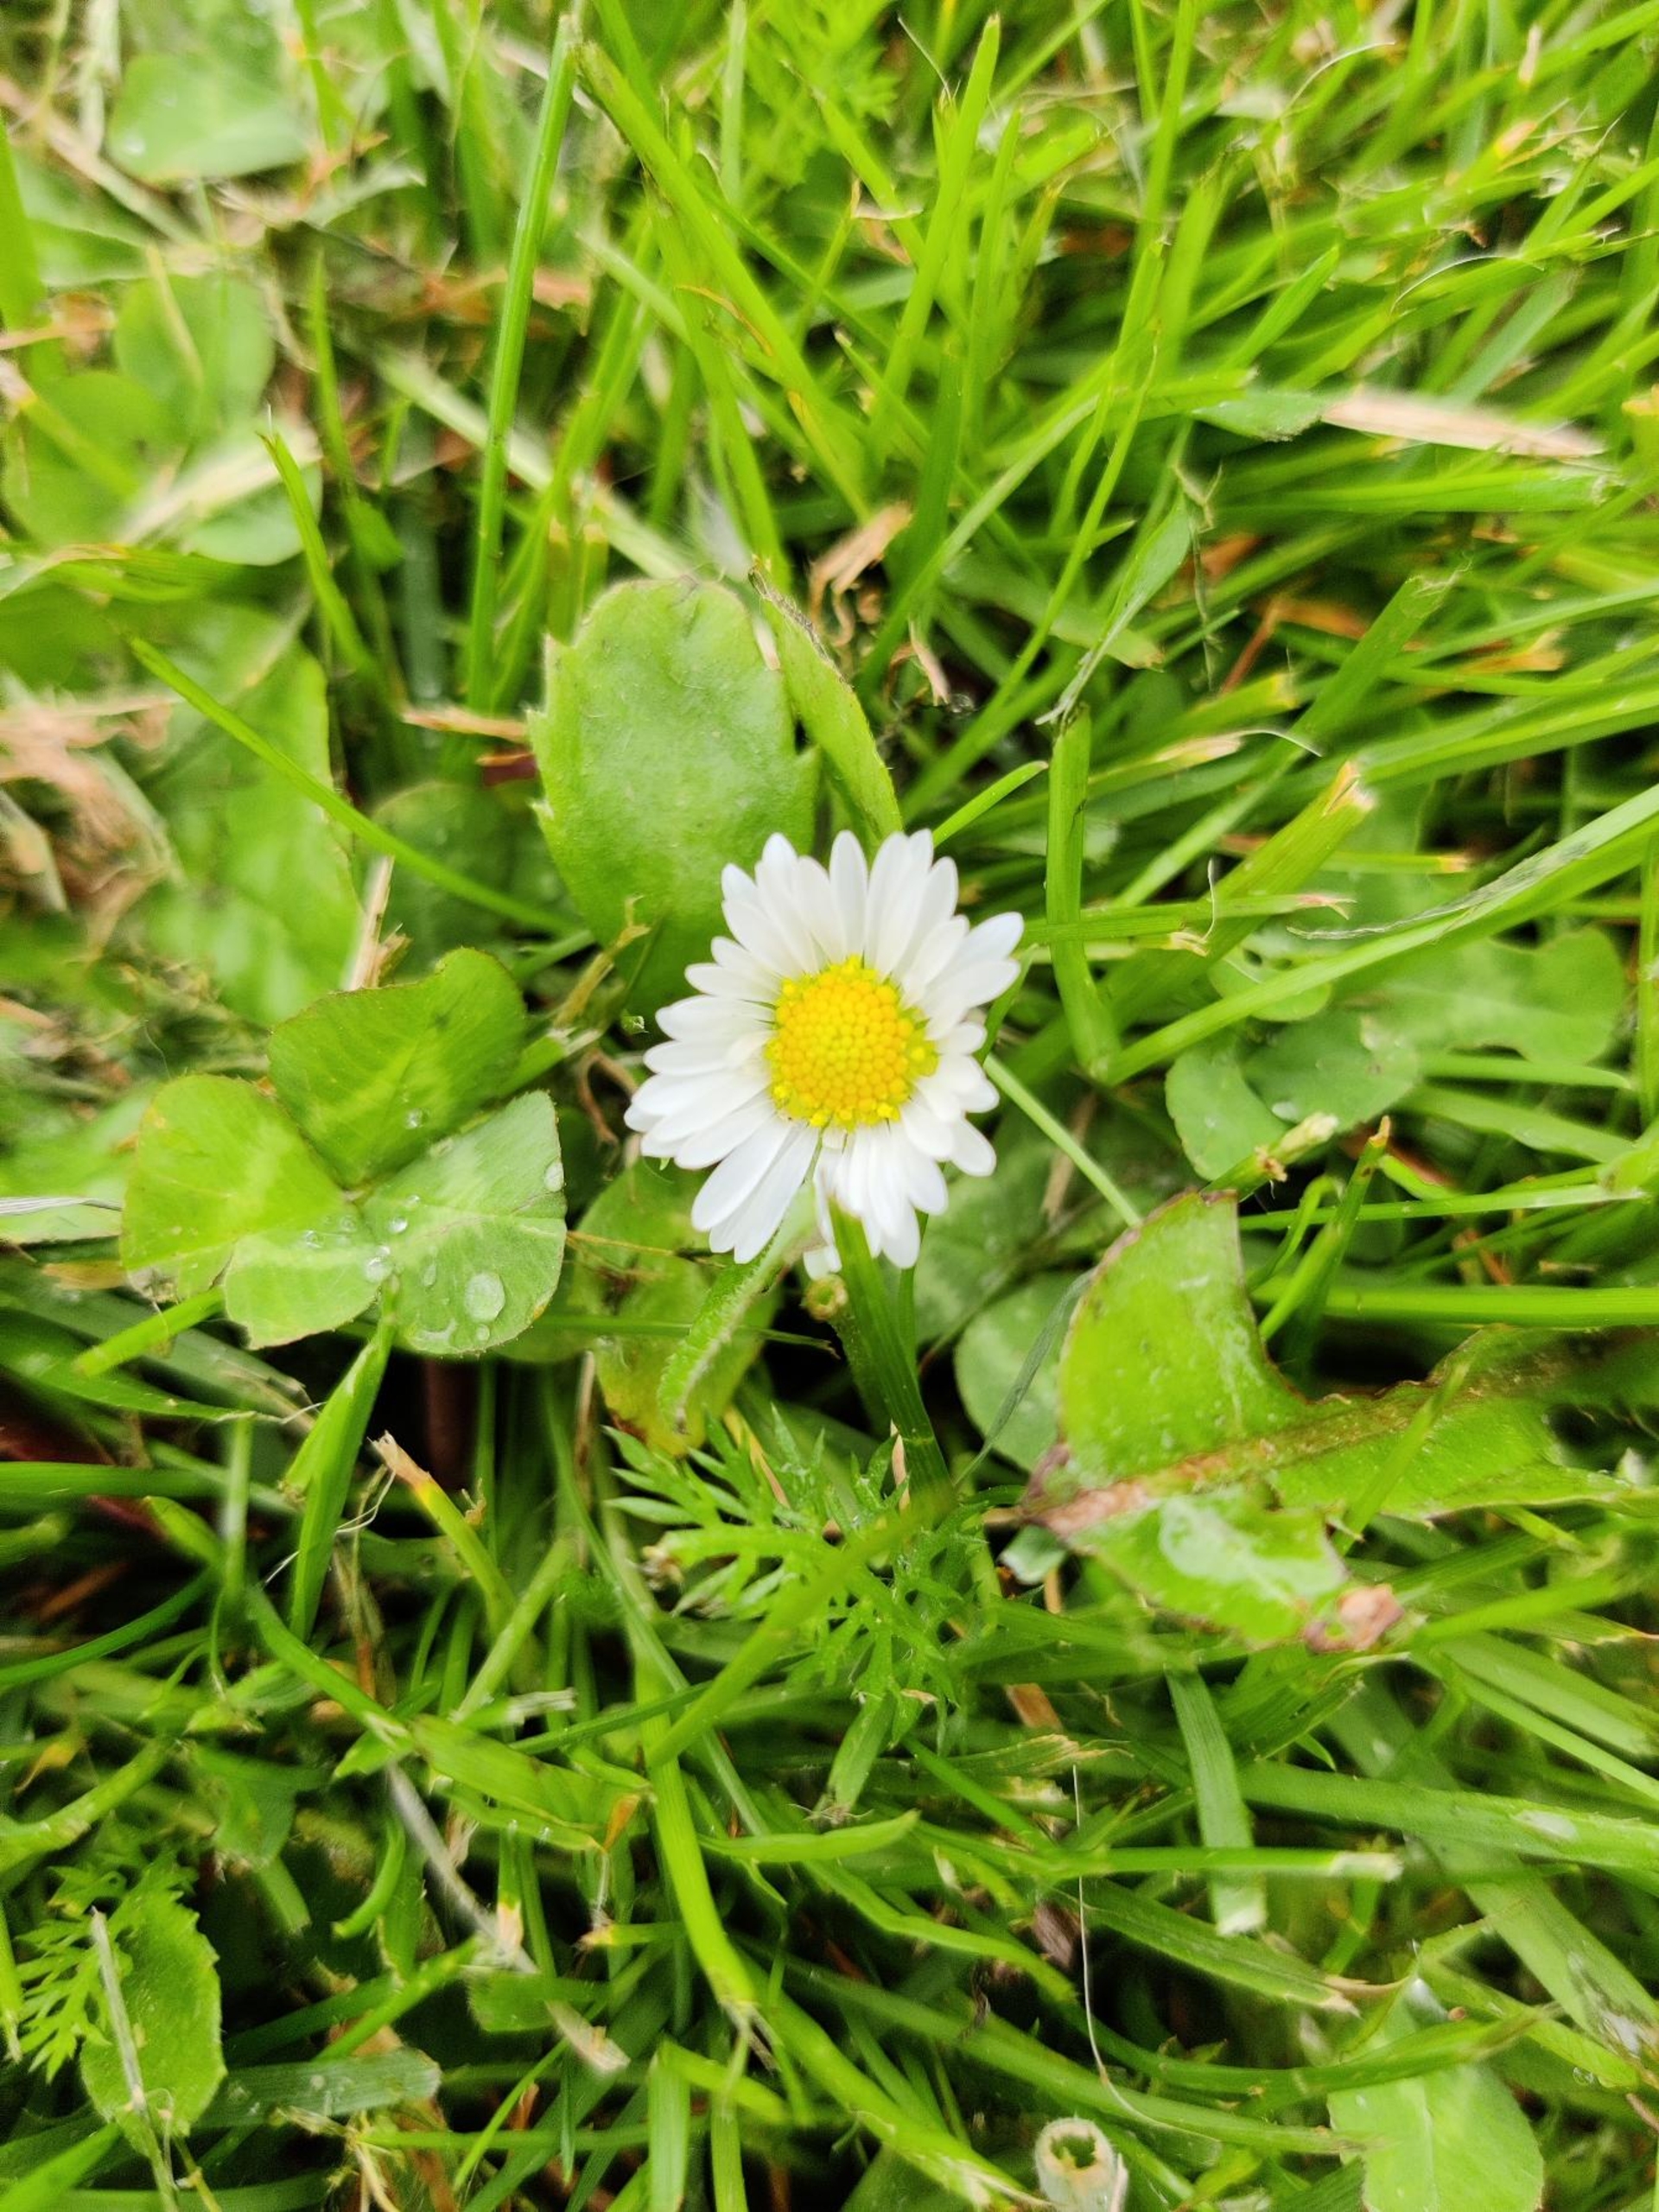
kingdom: Plantae
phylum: Tracheophyta
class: Magnoliopsida
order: Asterales
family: Asteraceae
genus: Bellis
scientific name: Bellis perennis
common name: Tusindfryd
